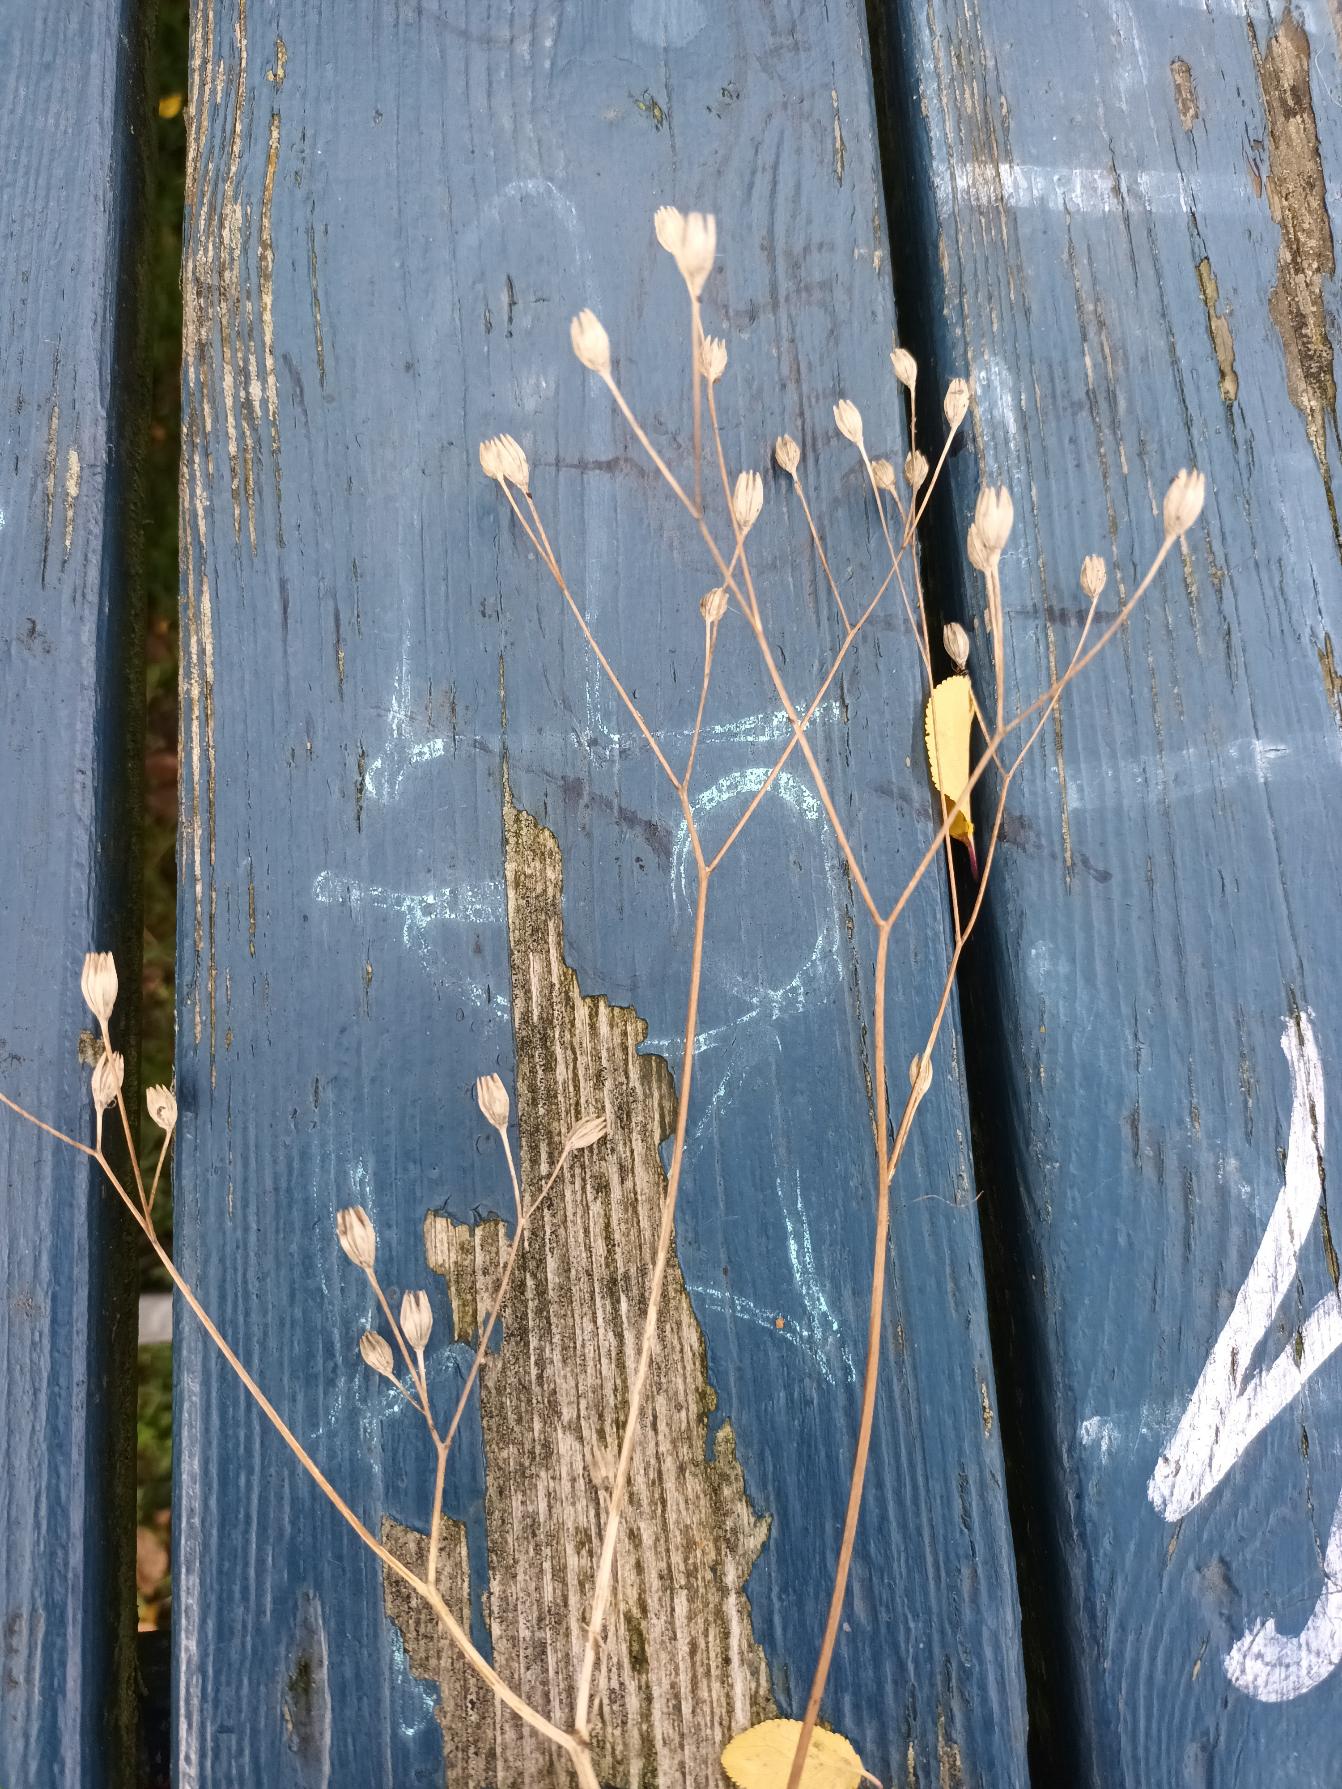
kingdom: Plantae
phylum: Tracheophyta
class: Magnoliopsida
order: Asterales
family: Asteraceae
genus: Lapsana
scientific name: Lapsana communis
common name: Haremad
